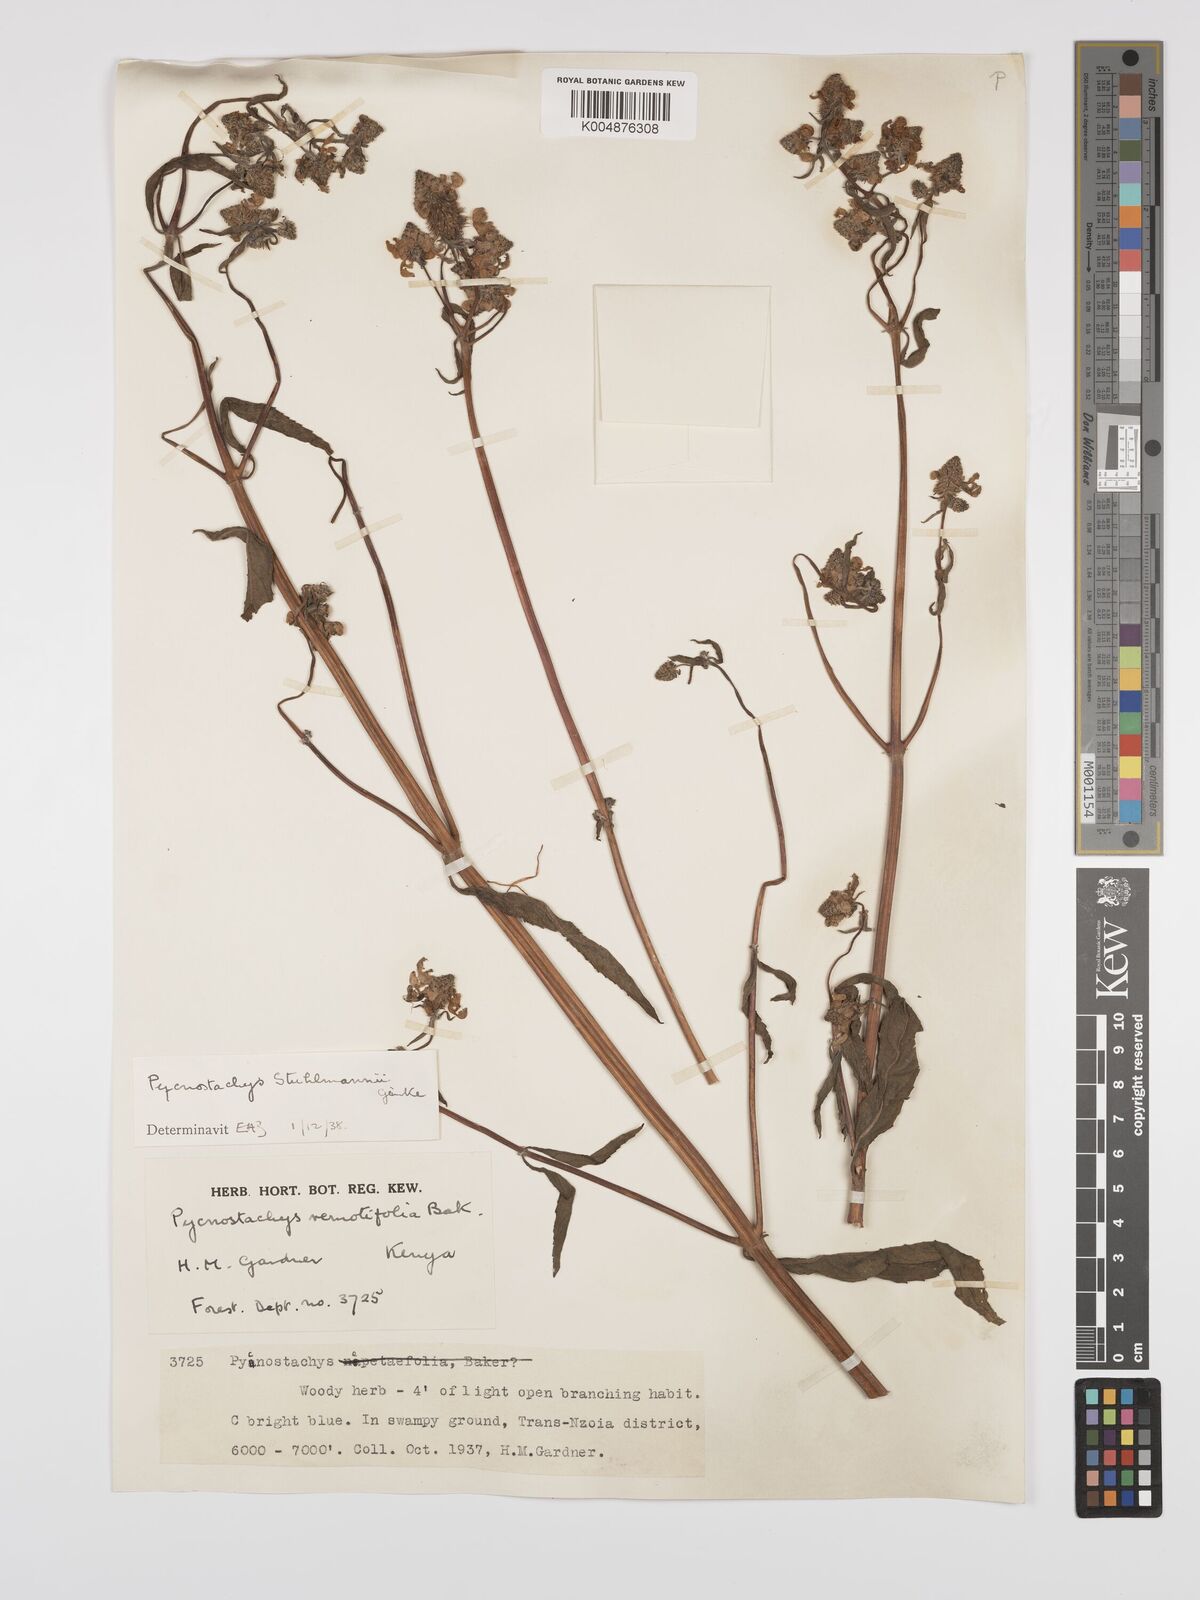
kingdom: Plantae
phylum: Tracheophyta
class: Magnoliopsida
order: Lamiales
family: Lamiaceae
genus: Coleus
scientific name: Coleus stuhlmannii
